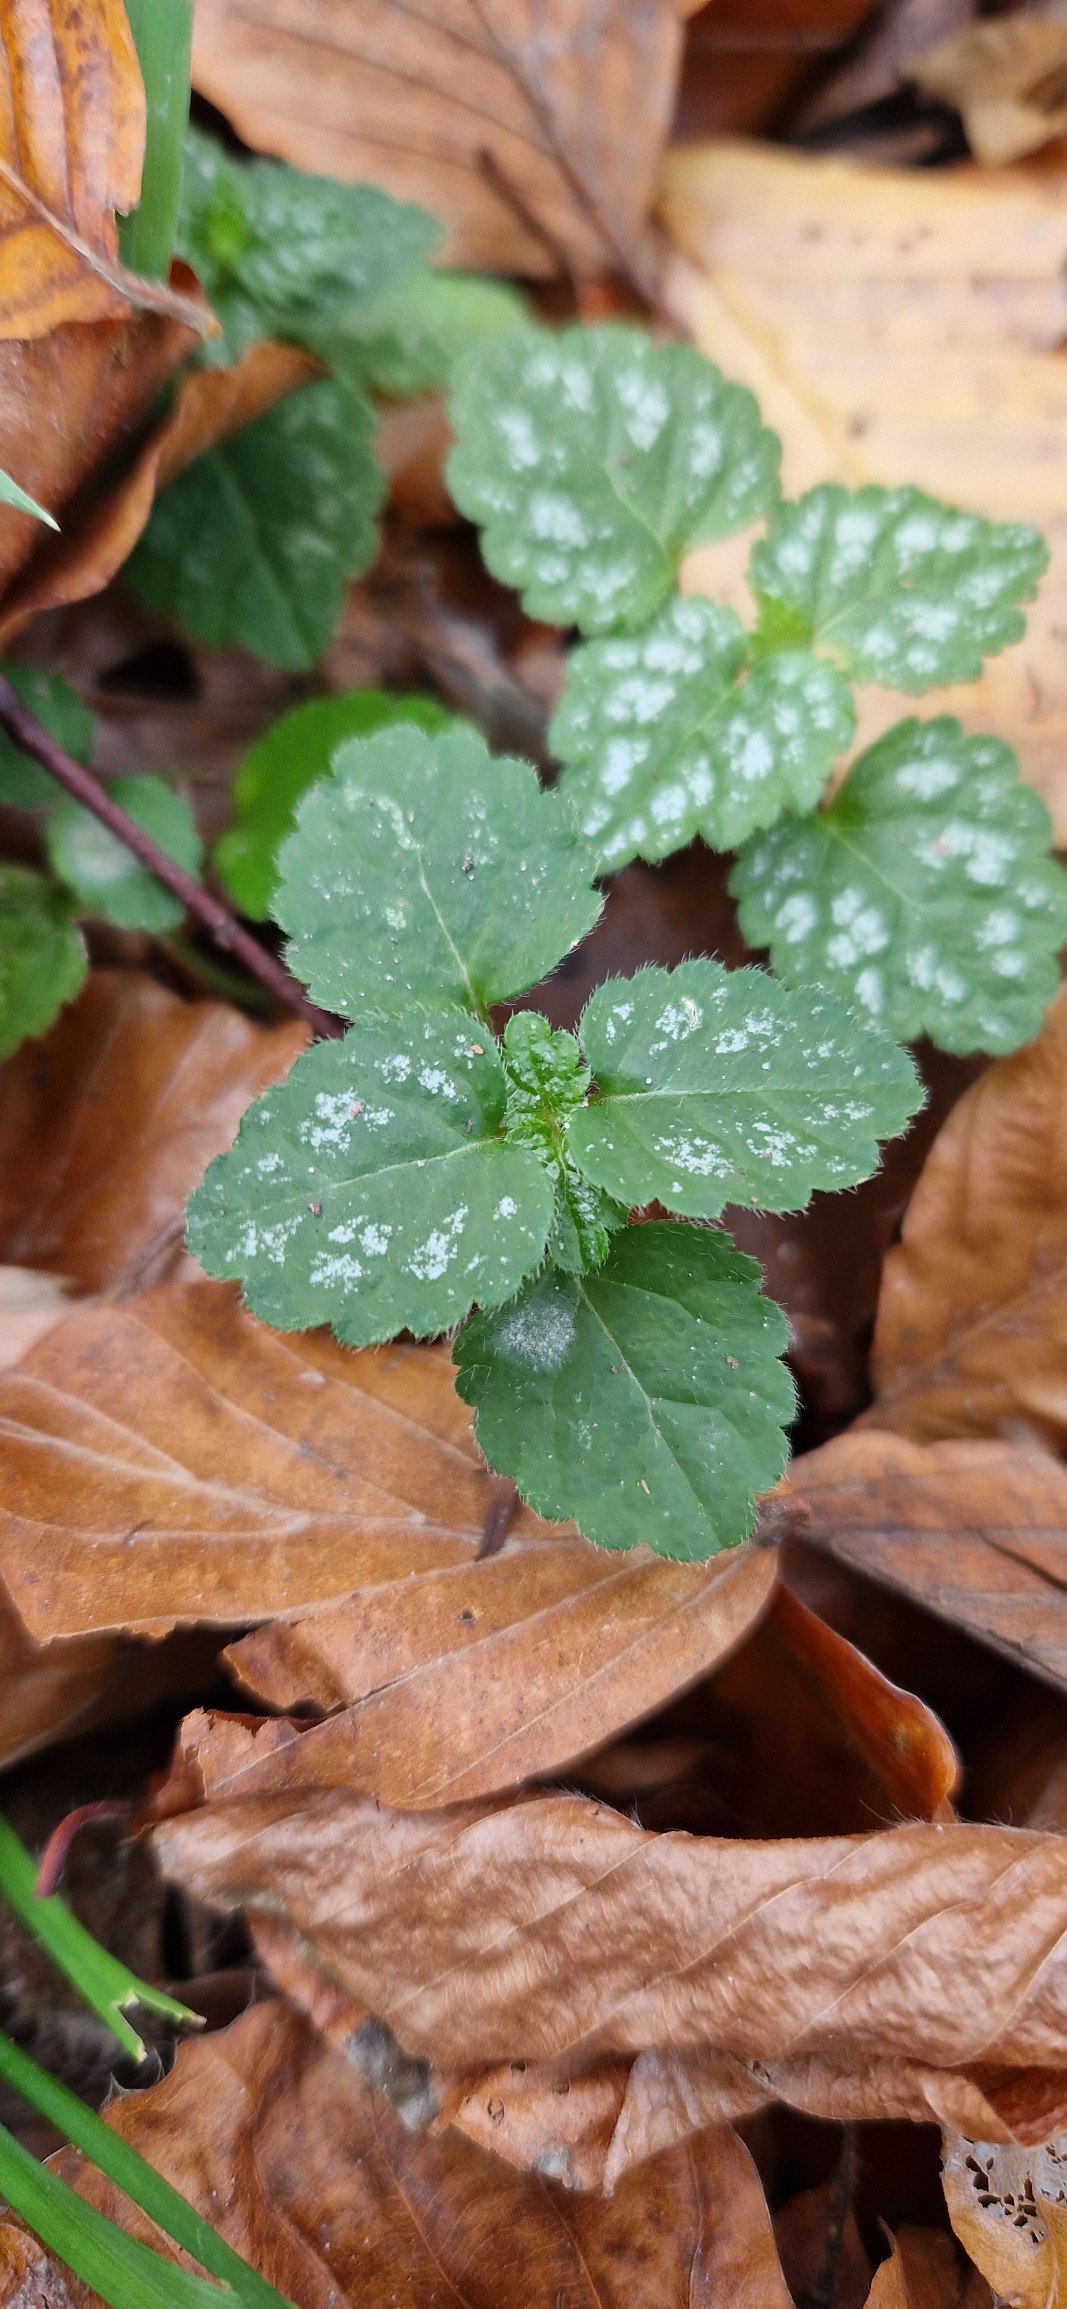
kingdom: Plantae
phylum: Tracheophyta
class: Magnoliopsida
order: Lamiales
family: Lamiaceae
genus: Lamium
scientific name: Lamium galeobdolon
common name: Almindelig guldnælde
